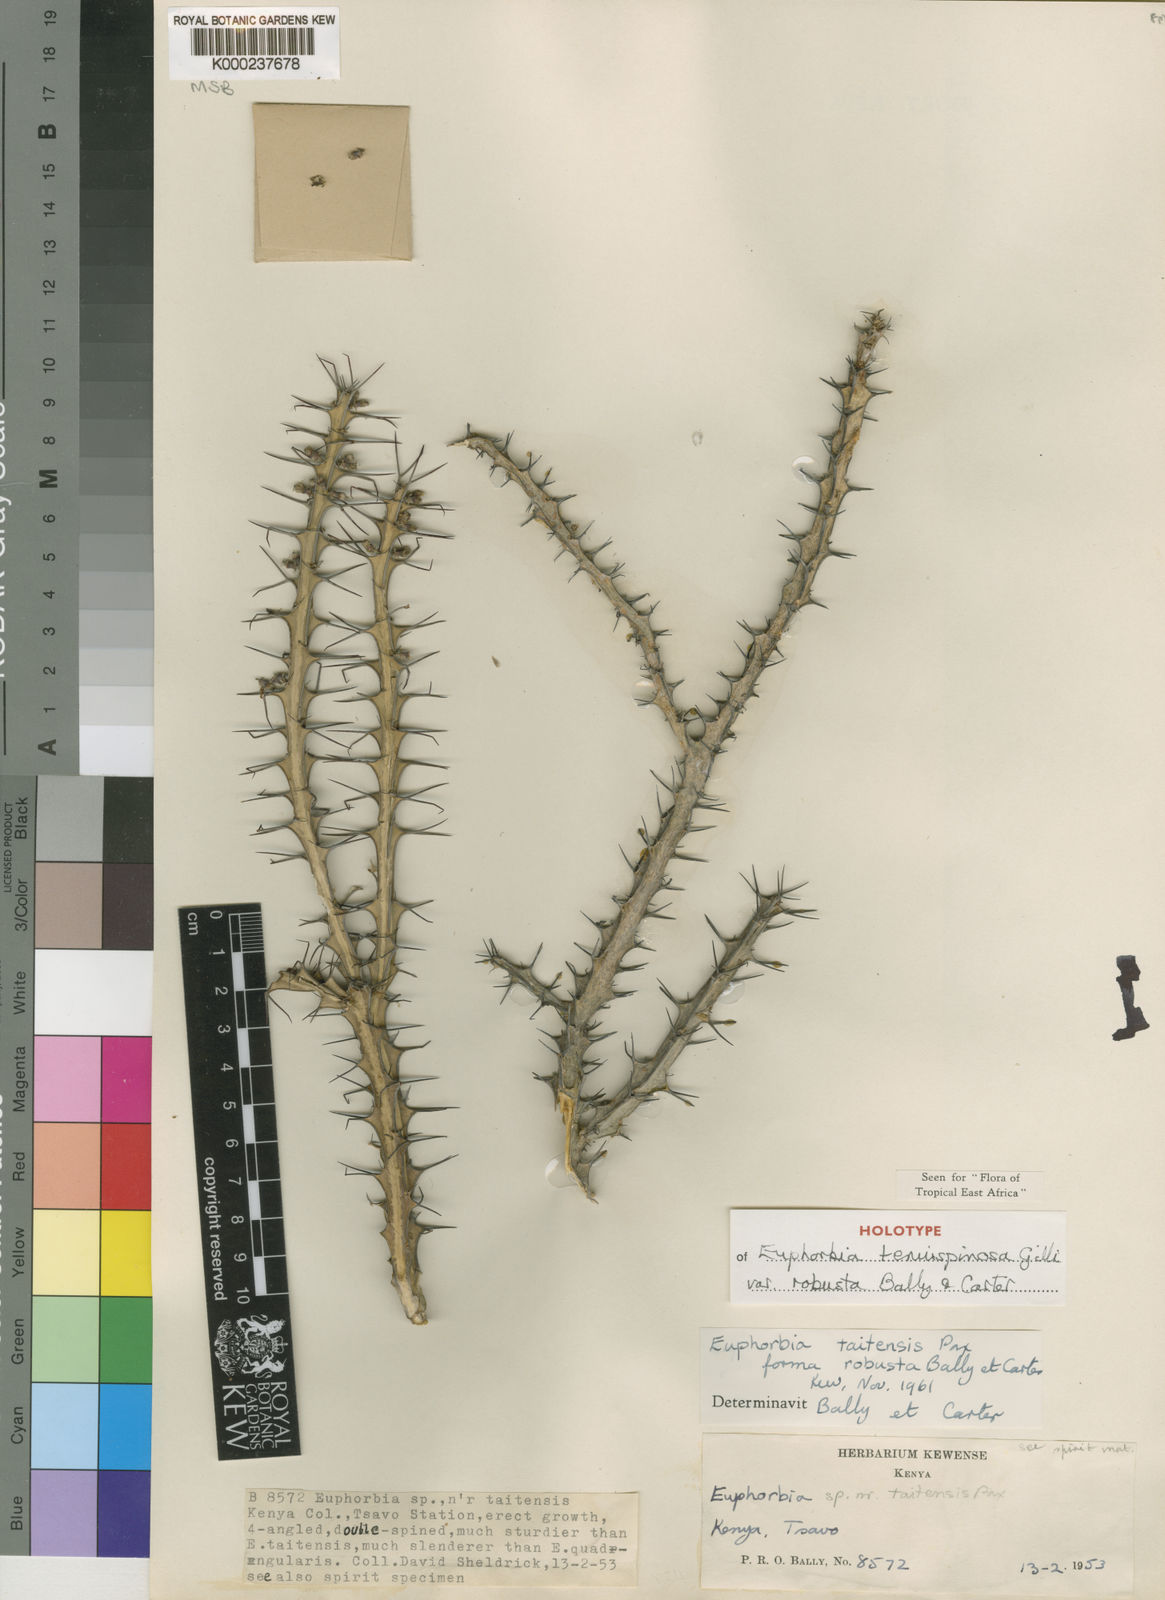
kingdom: Plantae
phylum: Tracheophyta
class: Magnoliopsida
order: Malpighiales
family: Euphorbiaceae
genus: Euphorbia
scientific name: Euphorbia tenuispinosa
